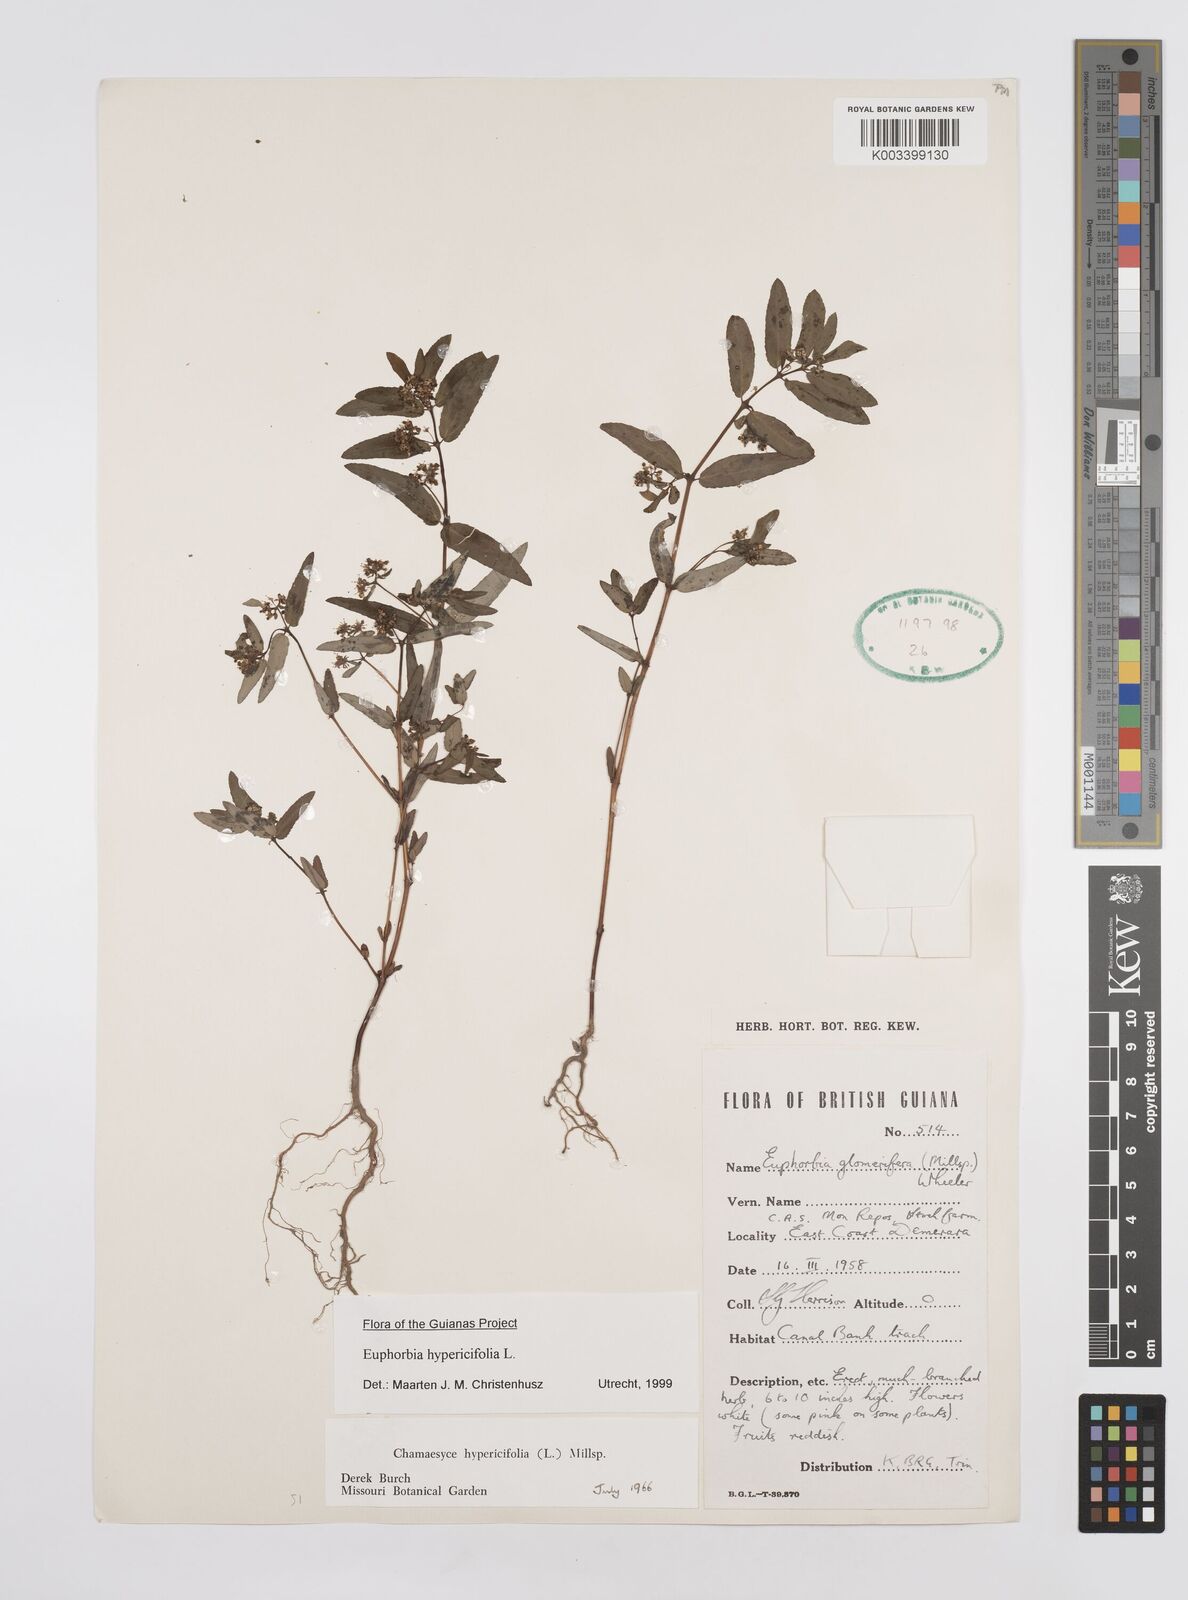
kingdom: Plantae
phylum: Tracheophyta
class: Magnoliopsida
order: Malpighiales
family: Euphorbiaceae
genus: Euphorbia
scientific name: Euphorbia hypericifolia
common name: Graceful sandmat
